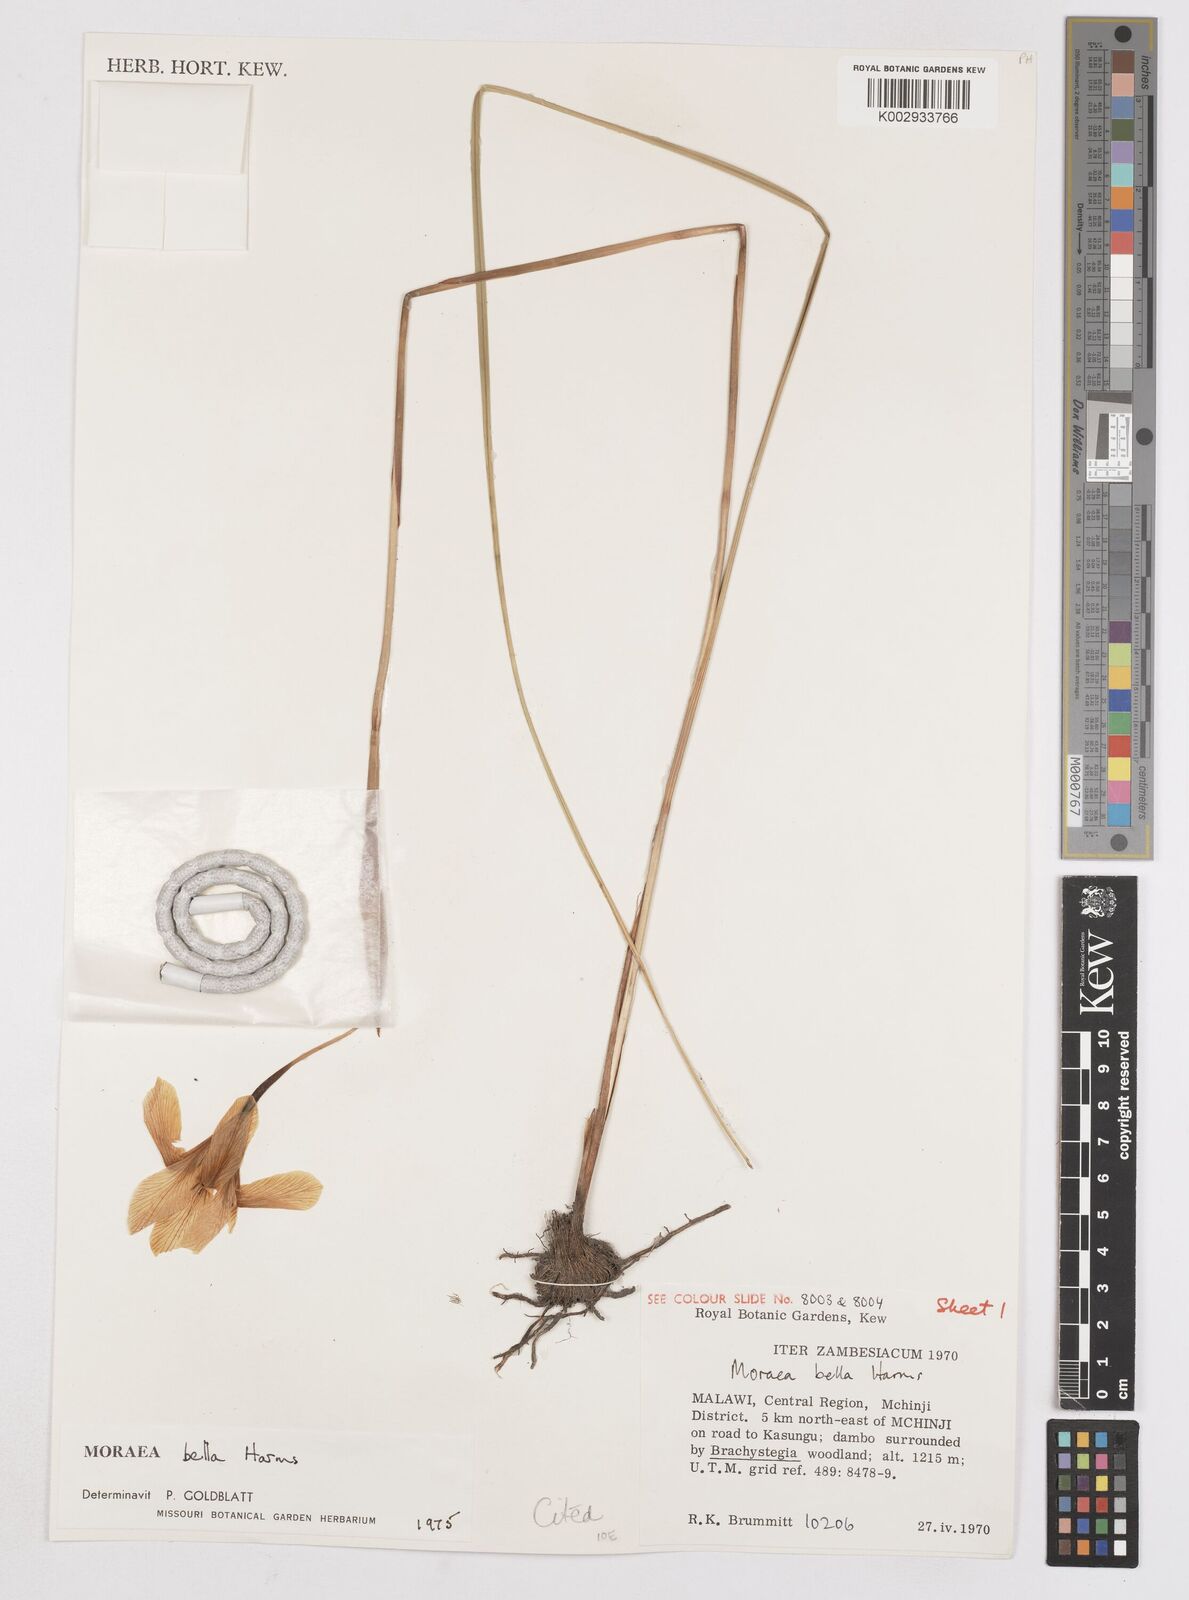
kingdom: Plantae
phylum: Tracheophyta
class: Liliopsida
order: Asparagales
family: Iridaceae
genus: Moraea
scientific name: Moraea bella
